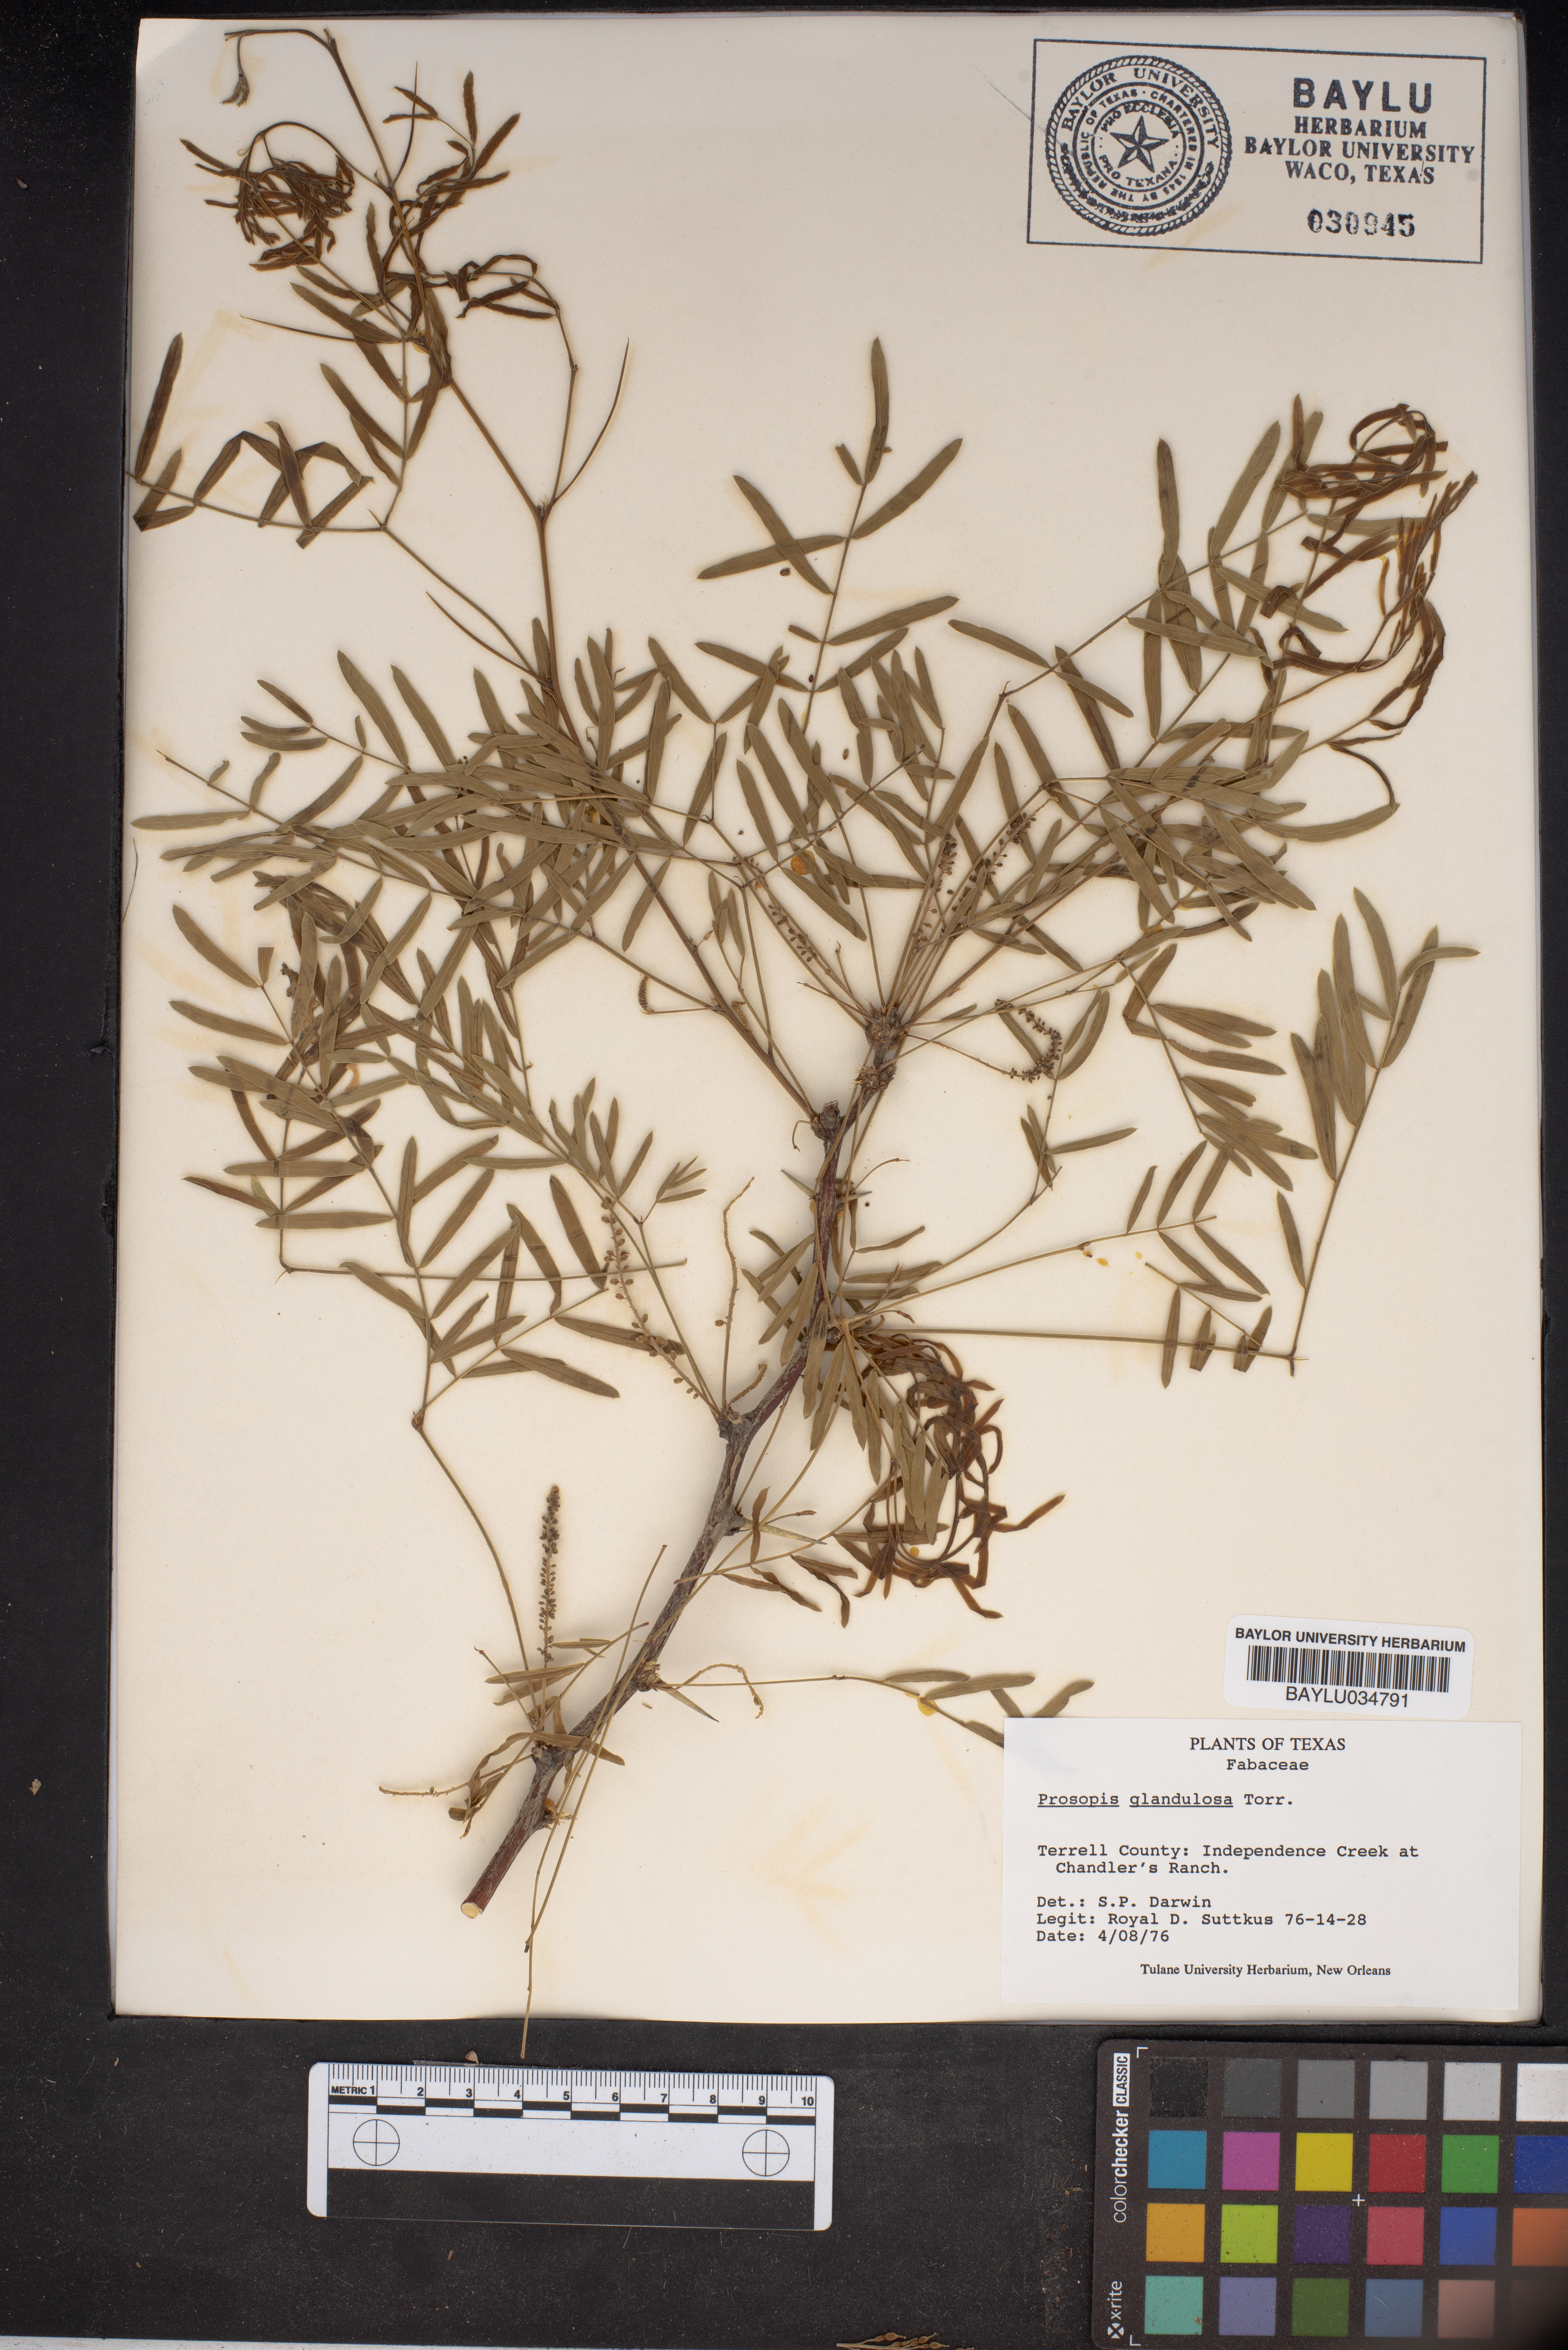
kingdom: Plantae
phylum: Tracheophyta
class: Magnoliopsida
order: Fabales
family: Fabaceae
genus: Prosopis
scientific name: Prosopis glandulosa
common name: Honey mesquite
